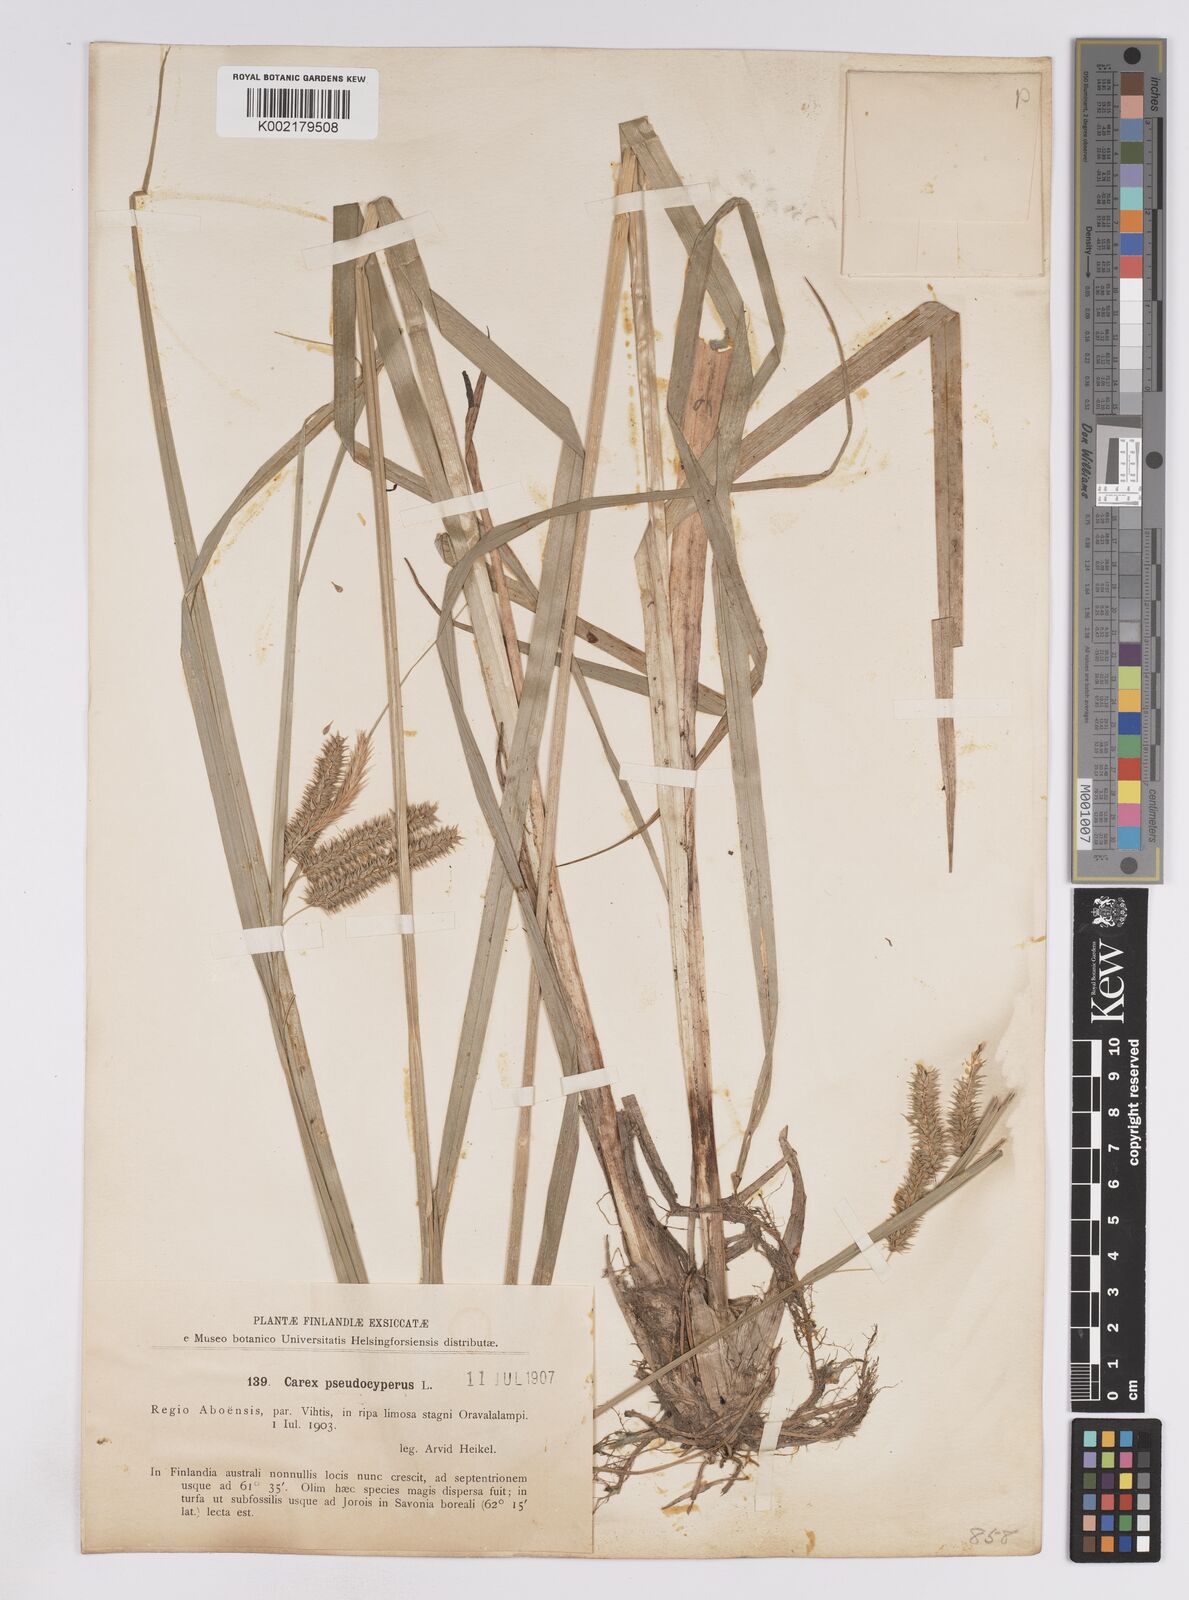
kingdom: Plantae
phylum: Tracheophyta
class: Liliopsida
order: Poales
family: Cyperaceae
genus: Carex
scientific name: Carex pseudocyperus
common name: Cyperus sedge
